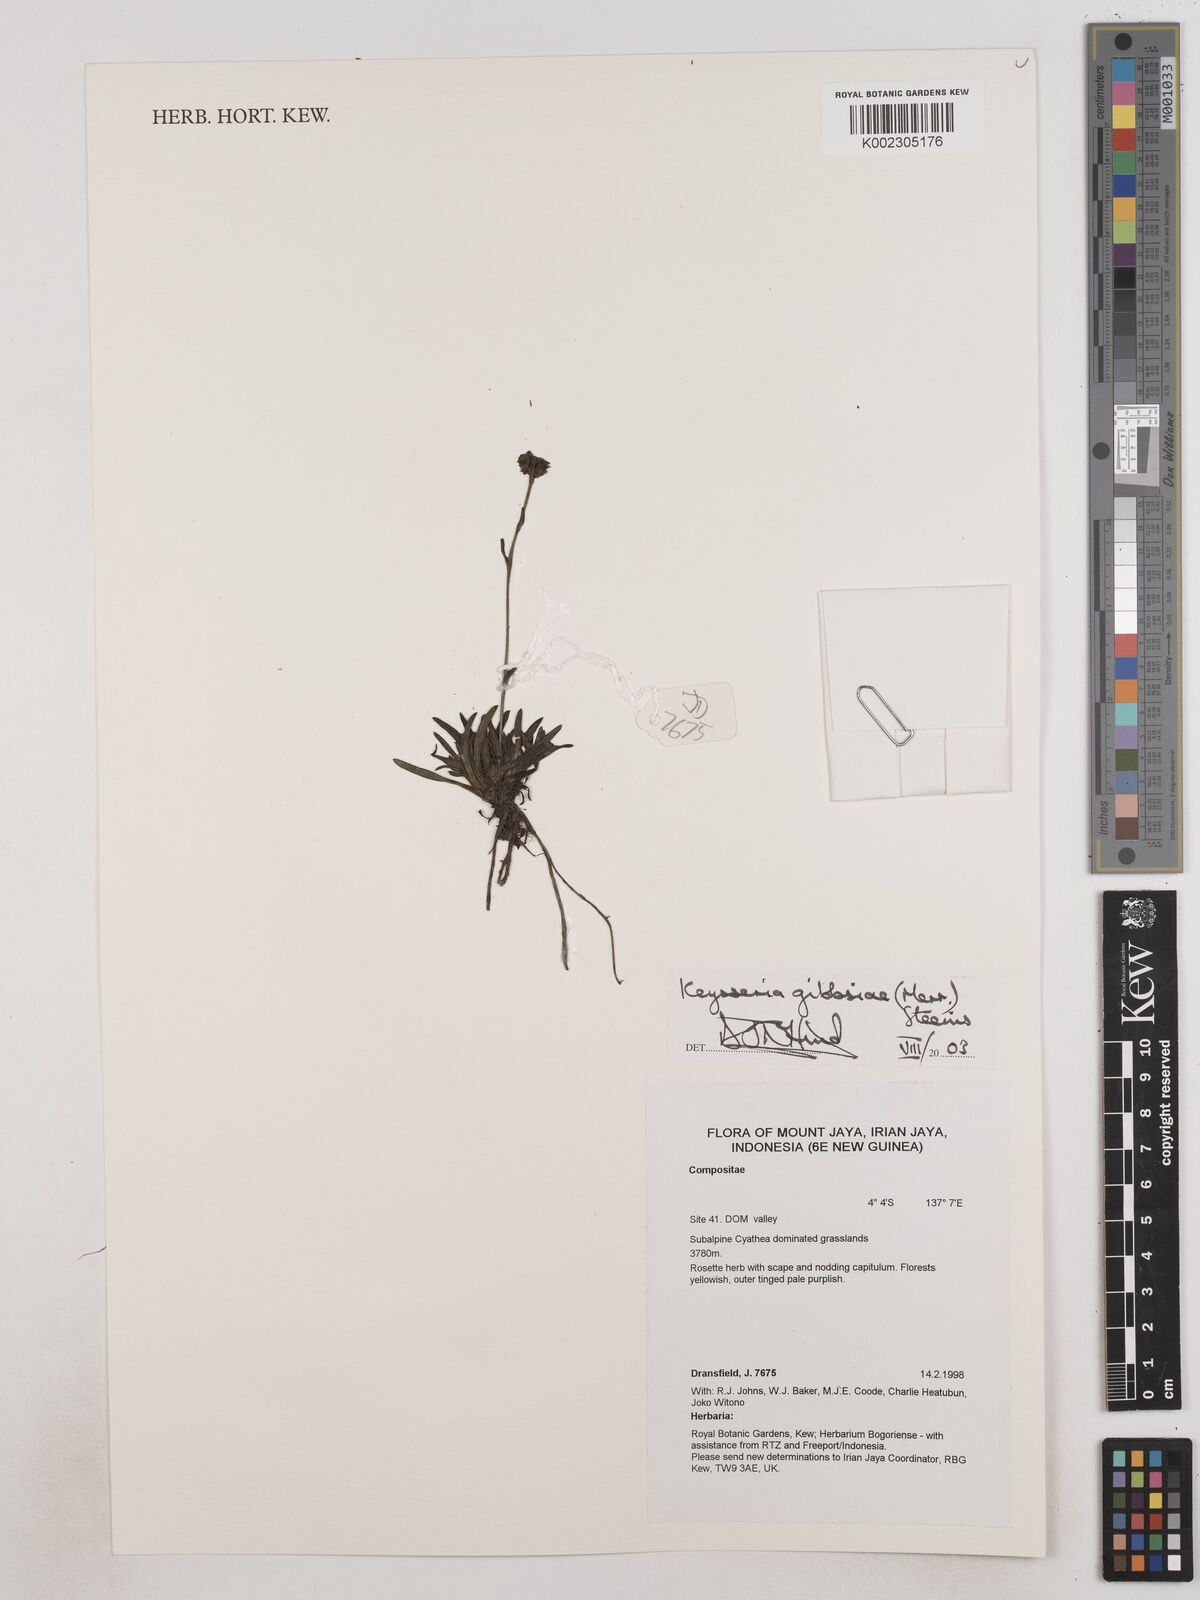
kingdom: Plantae
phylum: Tracheophyta
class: Magnoliopsida
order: Asterales
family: Asteraceae
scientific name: Asteraceae
